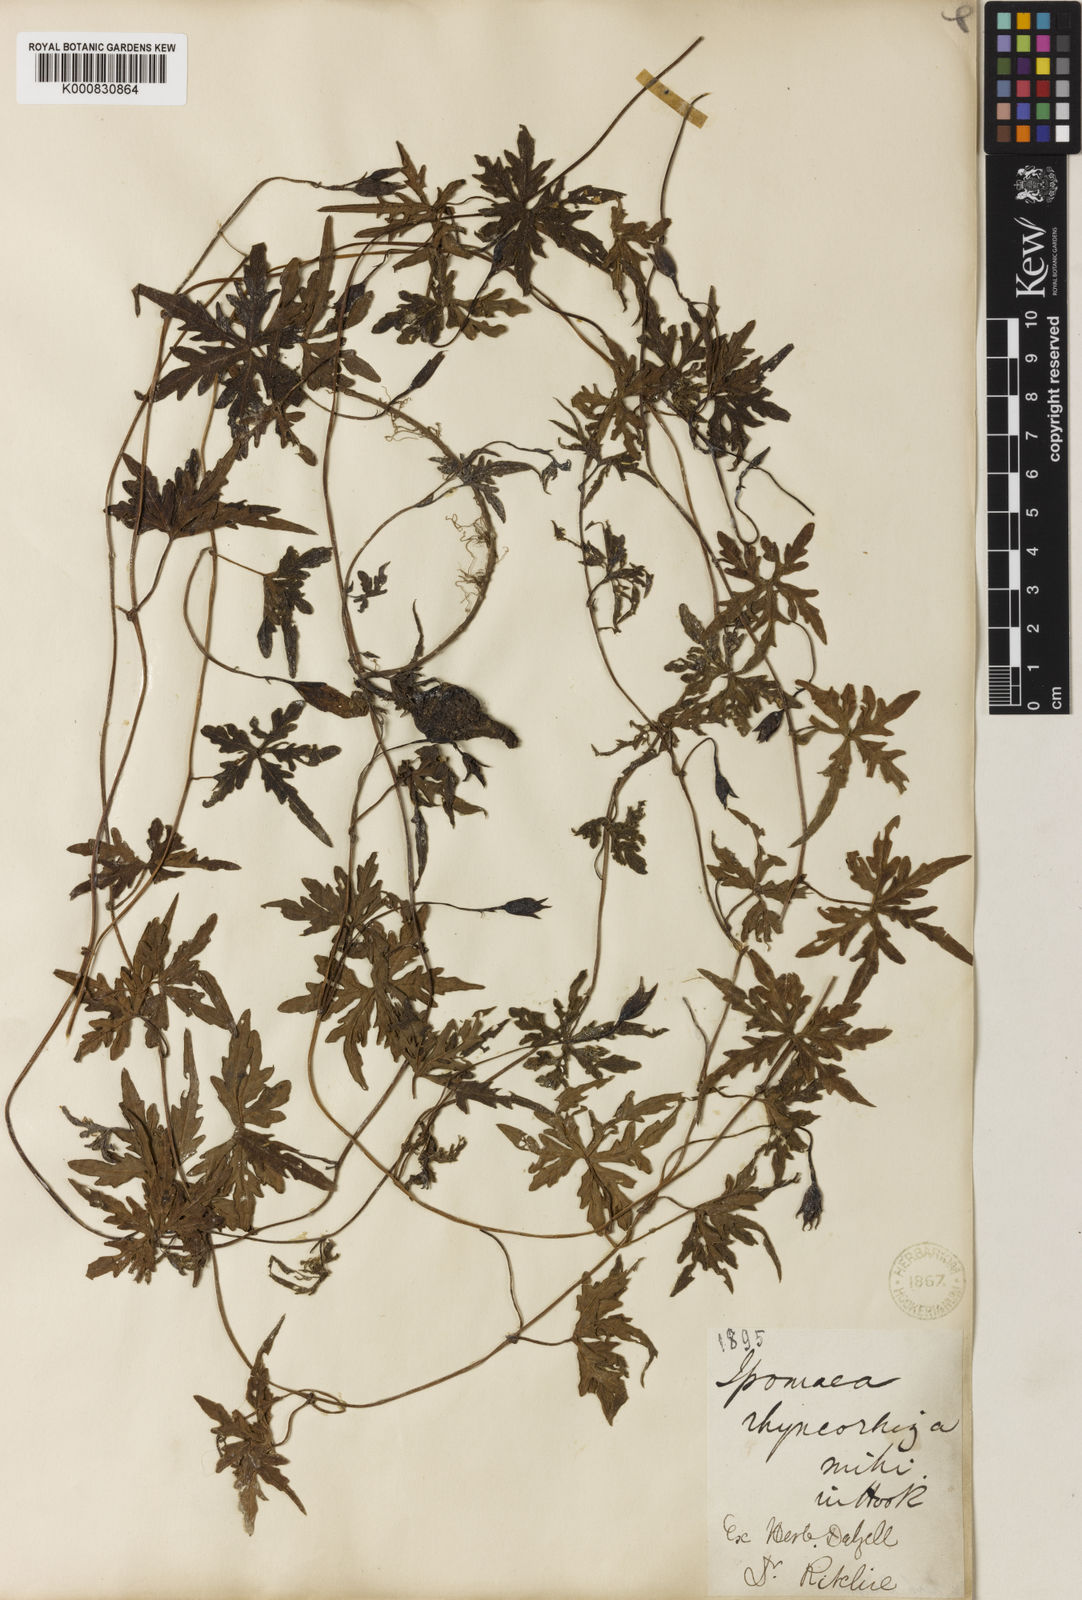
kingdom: Plantae
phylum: Tracheophyta
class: Magnoliopsida
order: Solanales
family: Convolvulaceae
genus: Merremia
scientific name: Merremia
